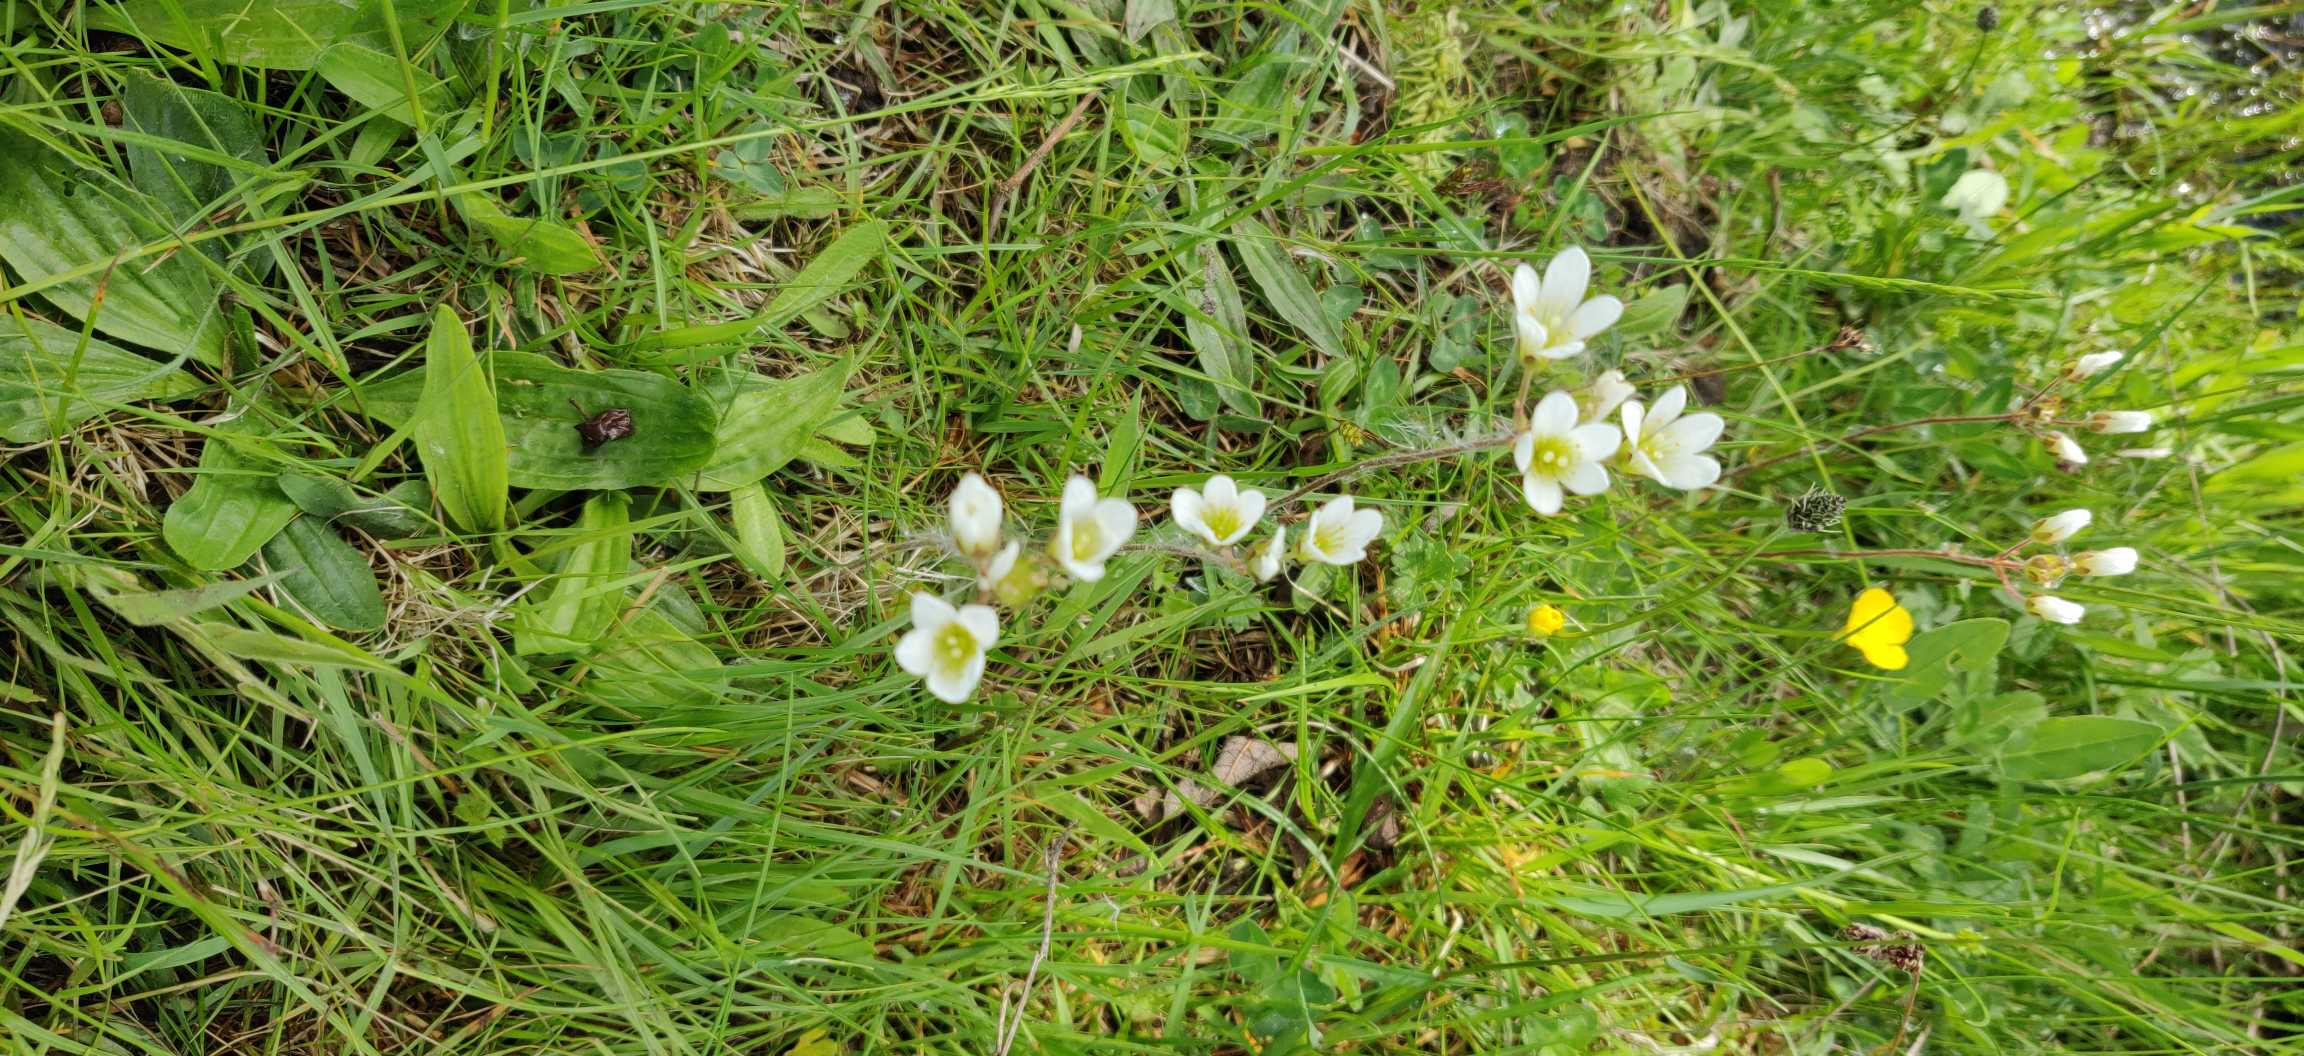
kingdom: Plantae
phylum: Tracheophyta
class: Magnoliopsida
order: Saxifragales
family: Saxifragaceae
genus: Saxifraga
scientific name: Saxifraga granulata
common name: Kornet stenbræk
